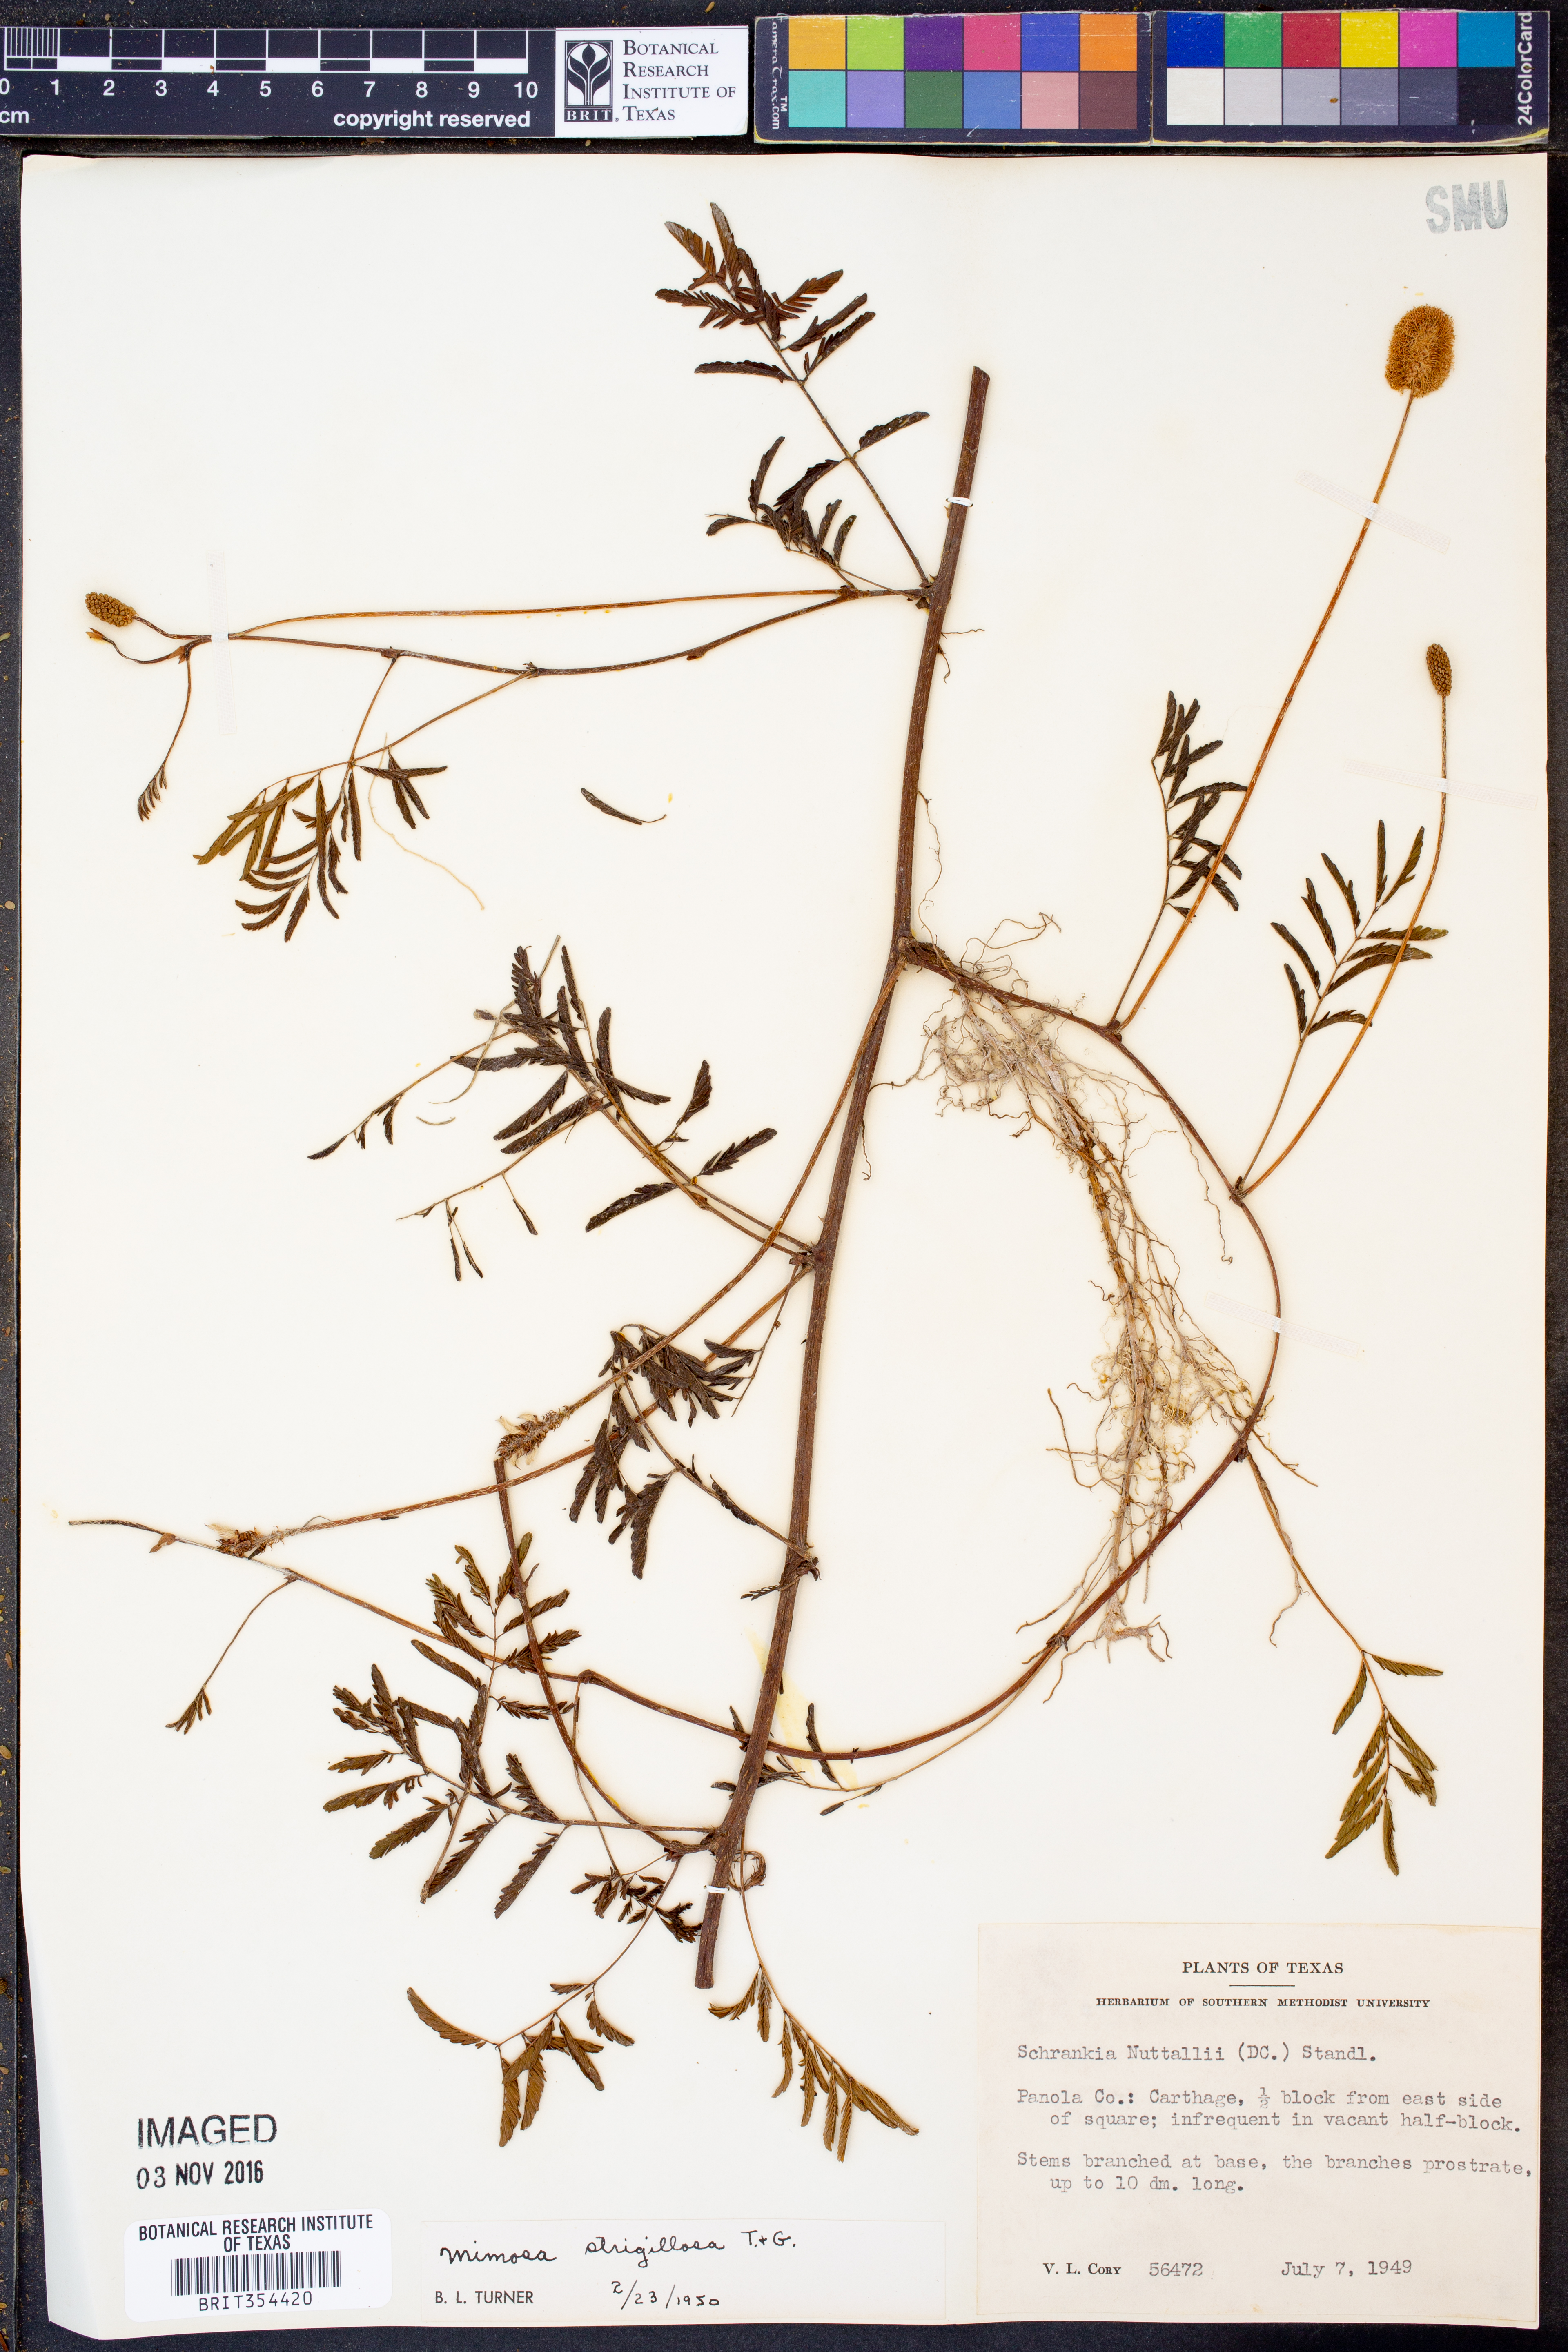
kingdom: Plantae
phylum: Tracheophyta
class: Magnoliopsida
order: Fabales
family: Fabaceae
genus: Mimosa
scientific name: Mimosa strigillosa
